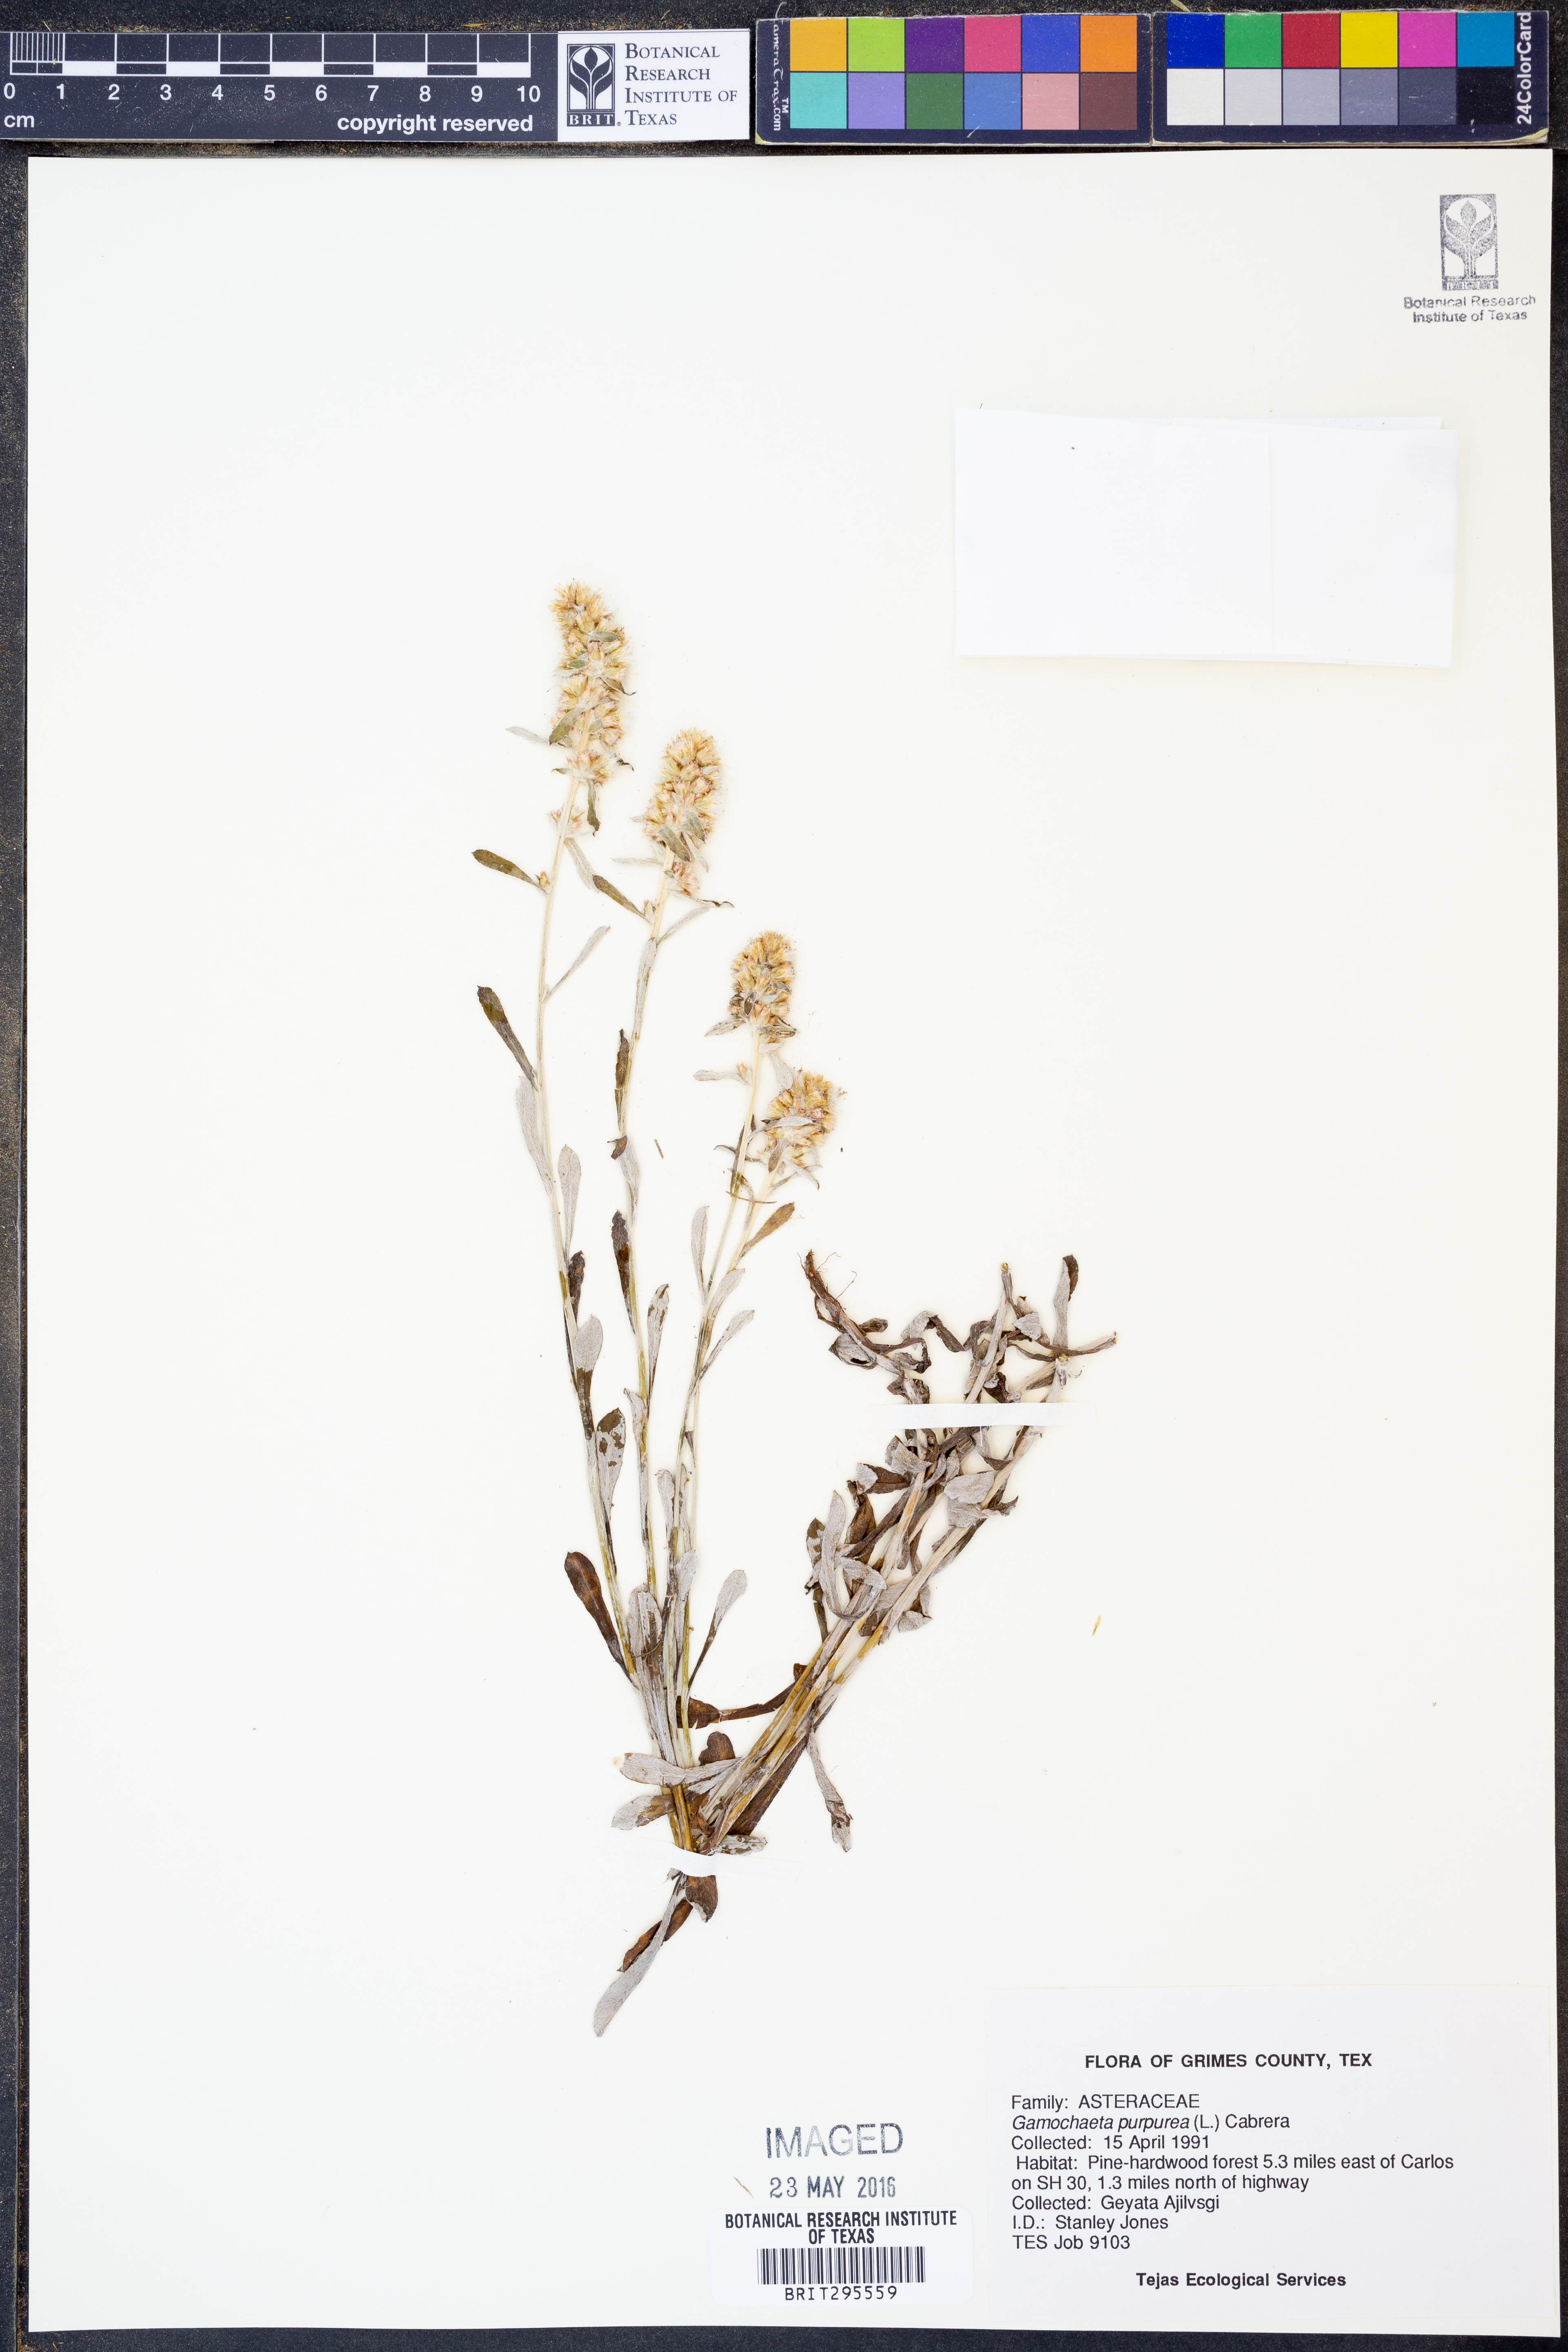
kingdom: Plantae
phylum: Tracheophyta
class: Magnoliopsida
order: Asterales
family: Asteraceae
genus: Gamochaeta
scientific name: Gamochaeta purpurea
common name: Purple cudweed
